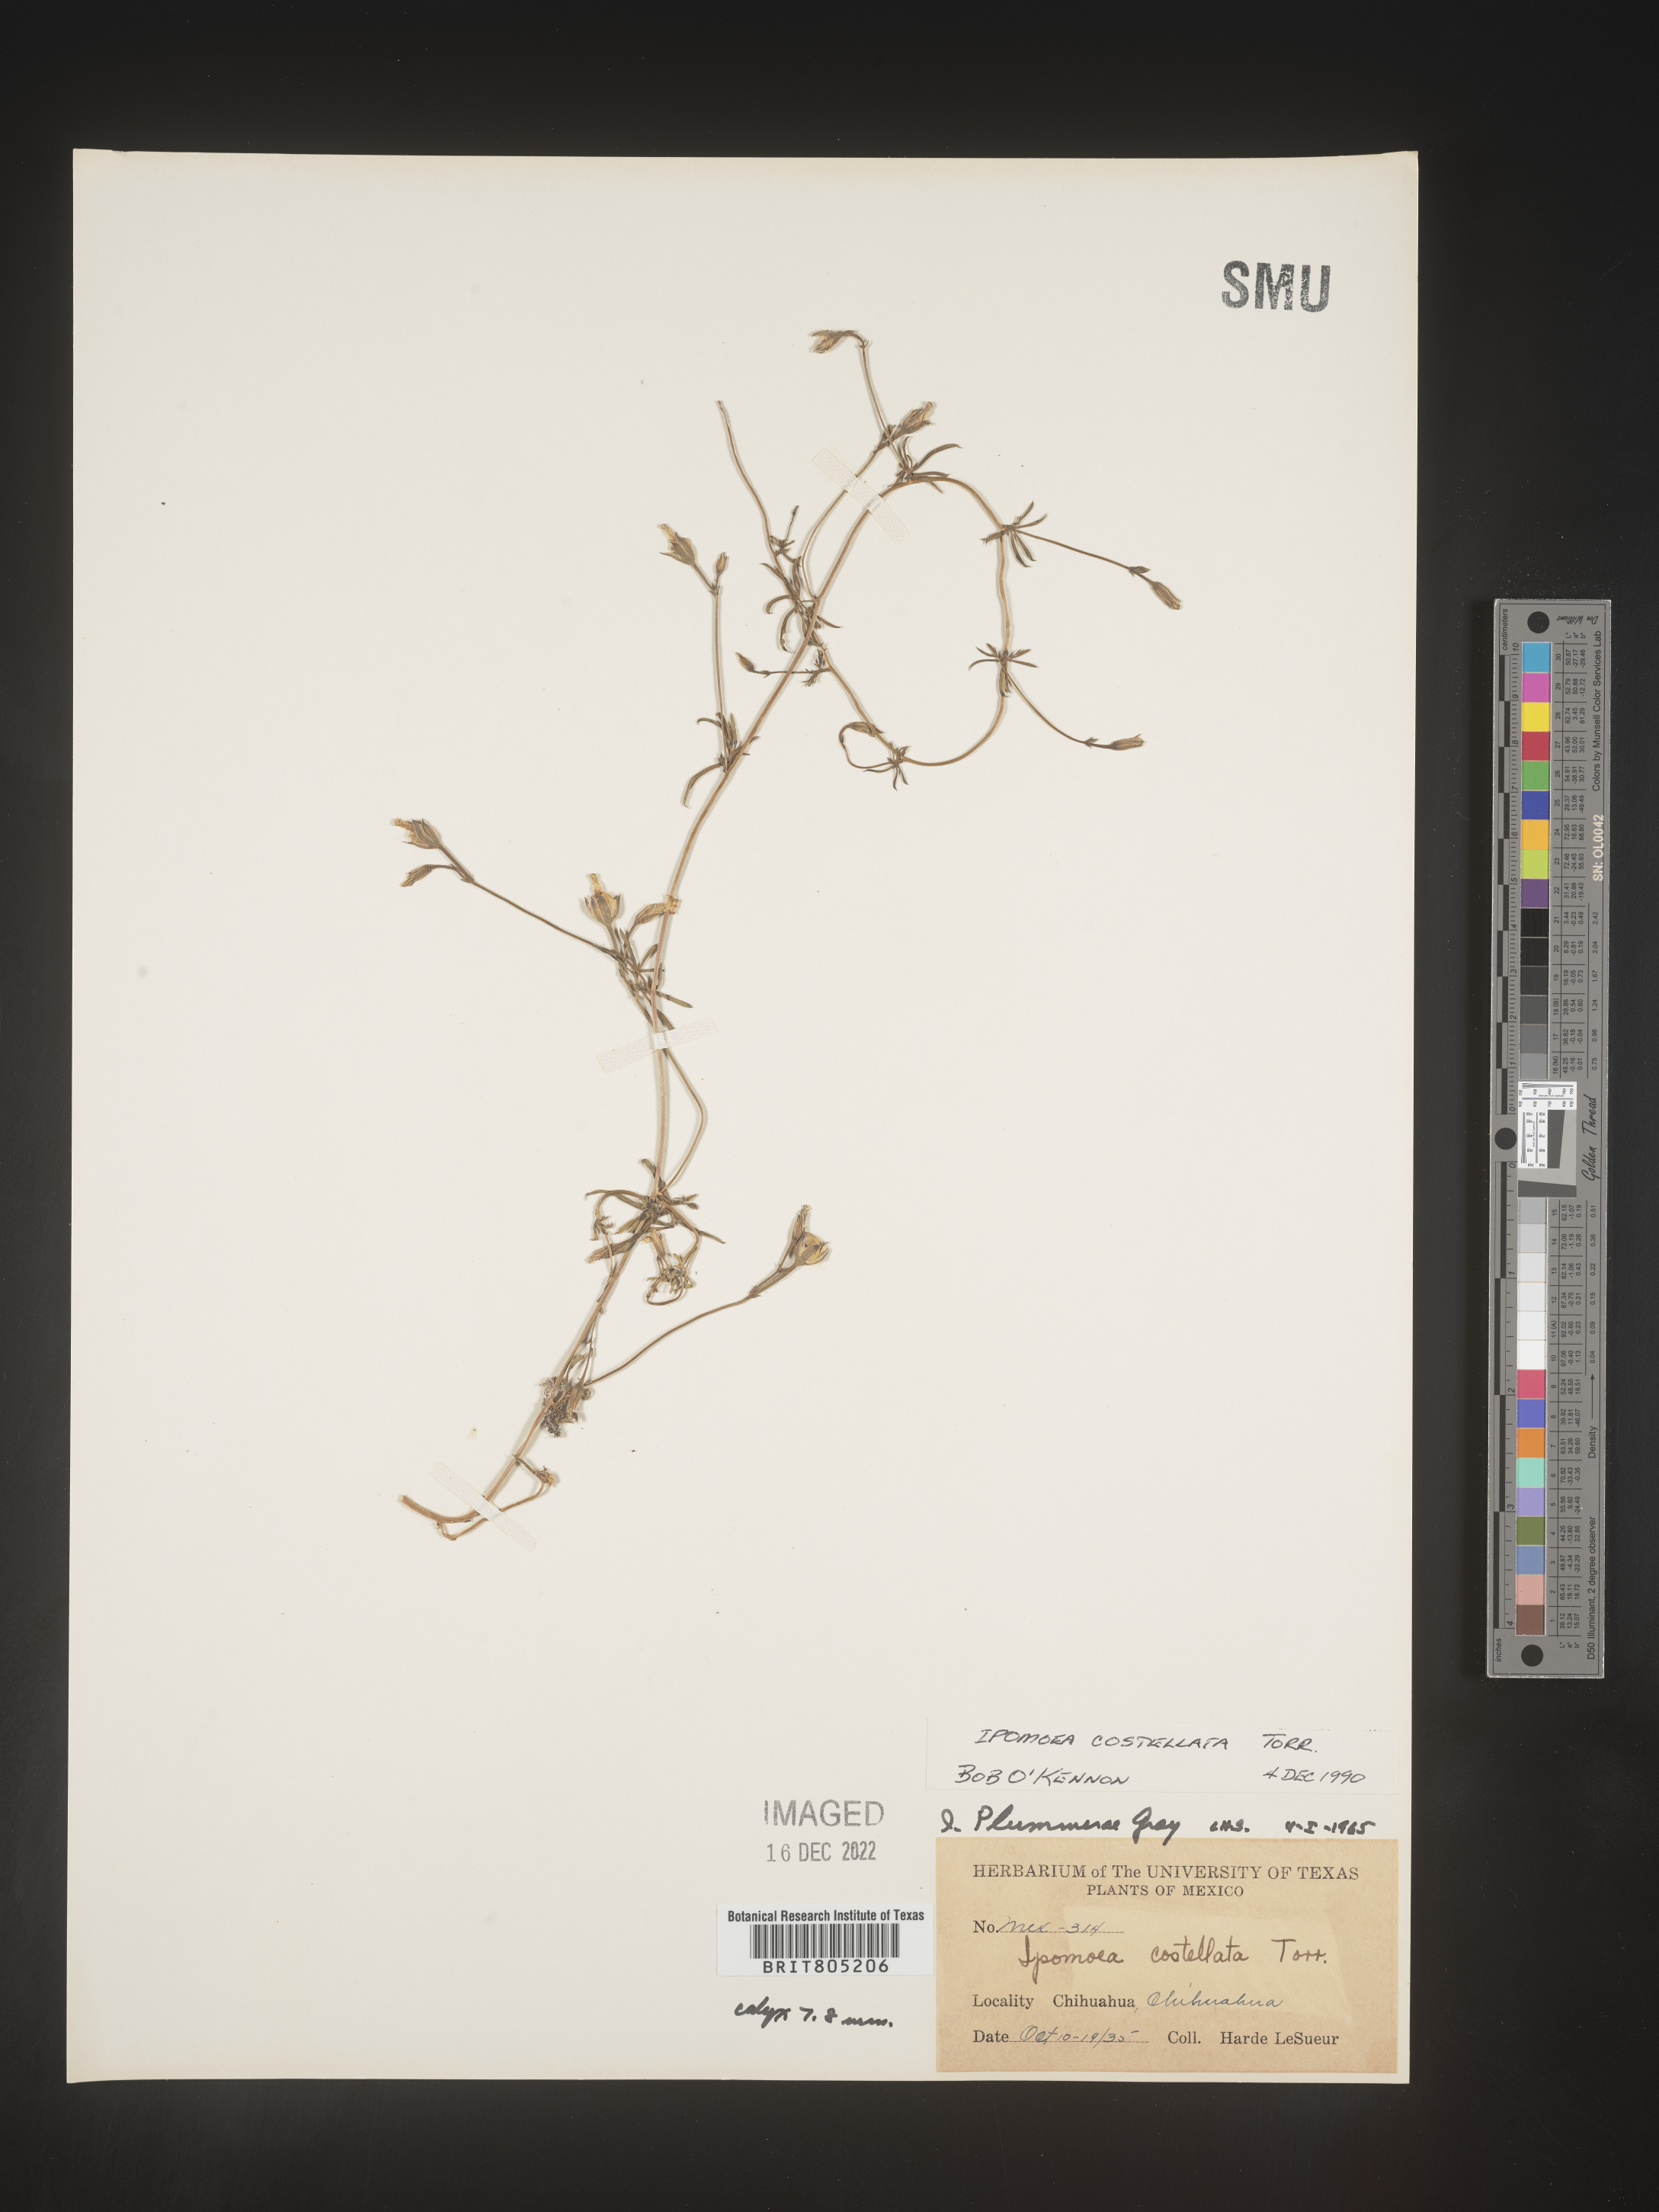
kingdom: Plantae
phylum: Tracheophyta
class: Magnoliopsida
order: Solanales
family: Convolvulaceae
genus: Ipomoea
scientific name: Ipomoea
